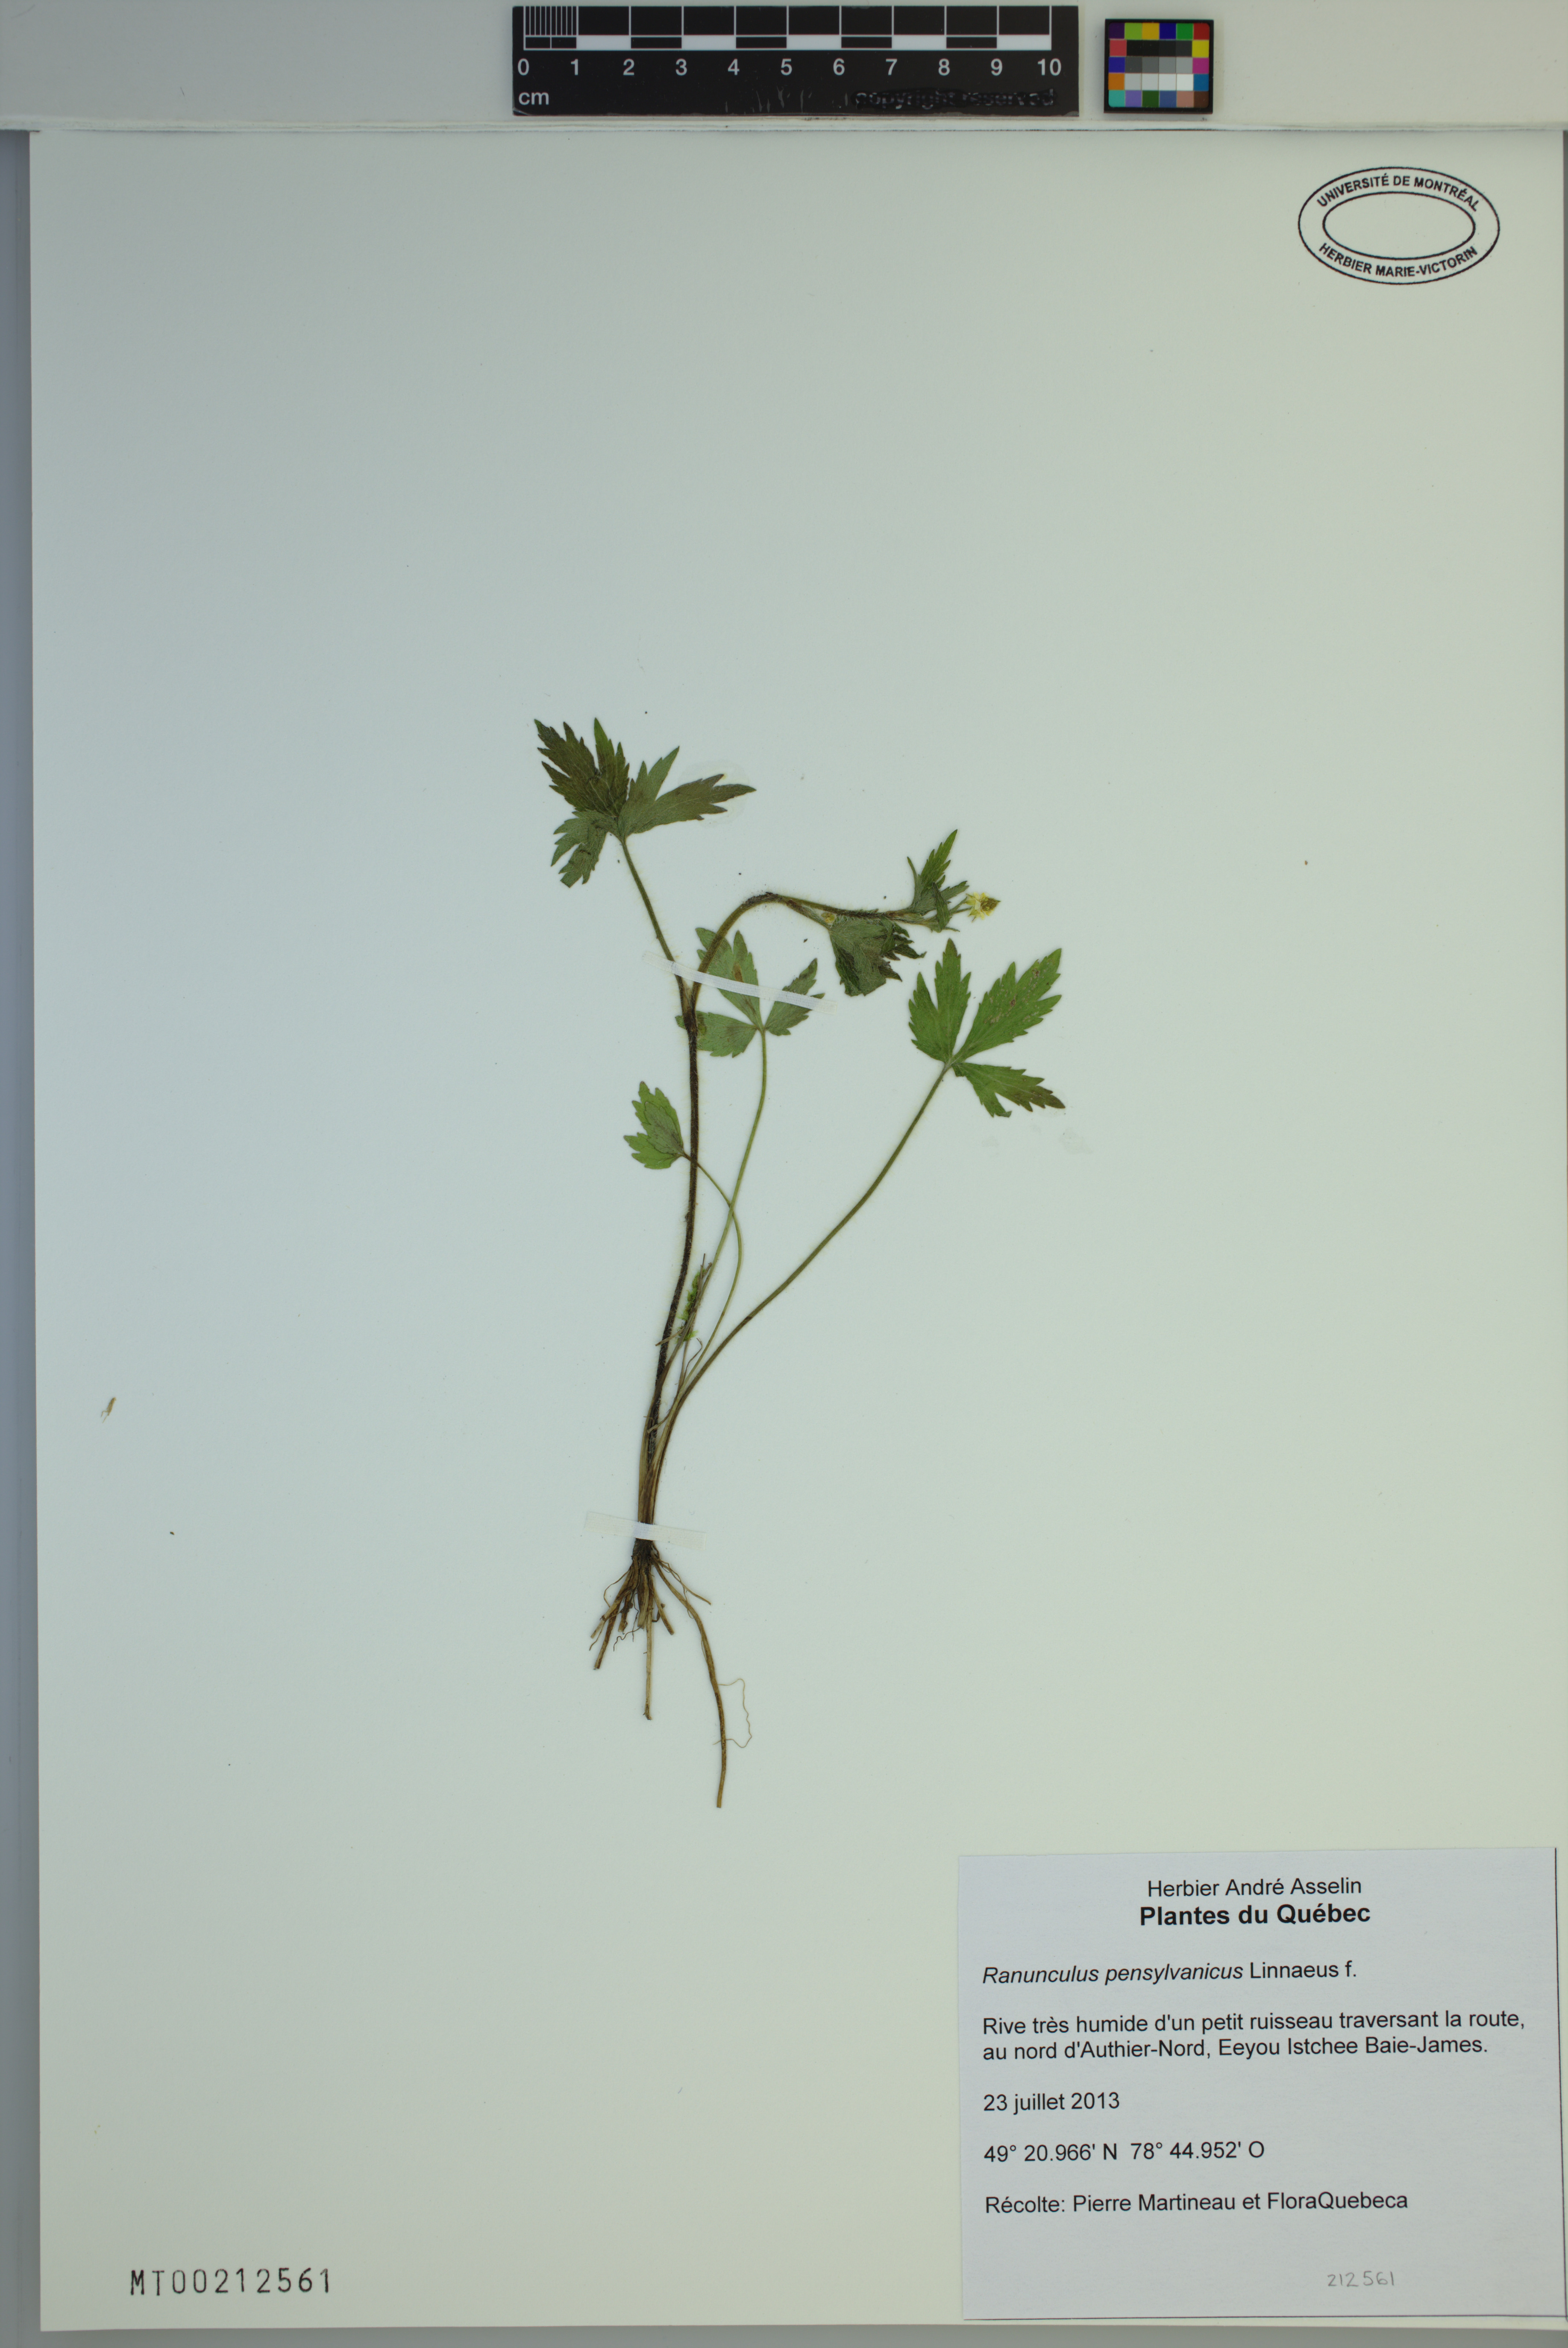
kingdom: Plantae
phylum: Tracheophyta
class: Magnoliopsida
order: Ranunculales
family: Ranunculaceae
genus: Ranunculus
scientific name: Ranunculus pensylvanicus
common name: Bristly buttercup
